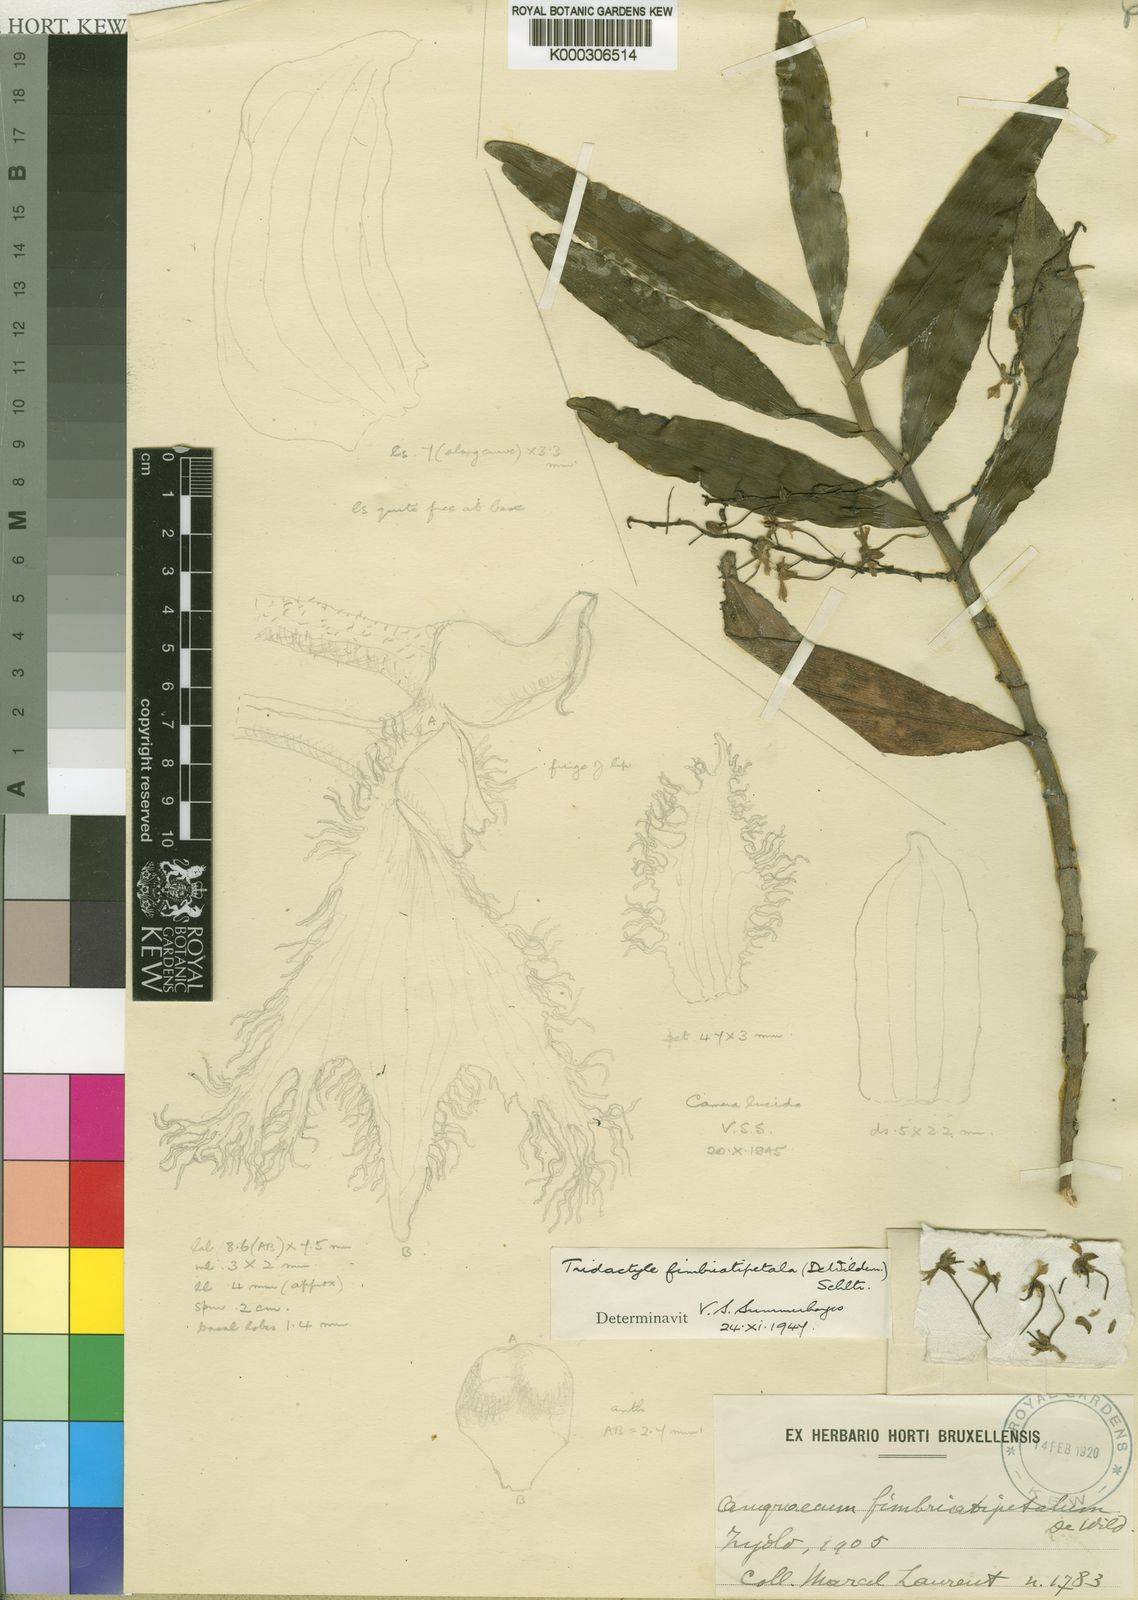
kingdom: Plantae
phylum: Tracheophyta
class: Liliopsida
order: Asparagales
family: Orchidaceae
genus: Tridactyle
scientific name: Tridactyle
